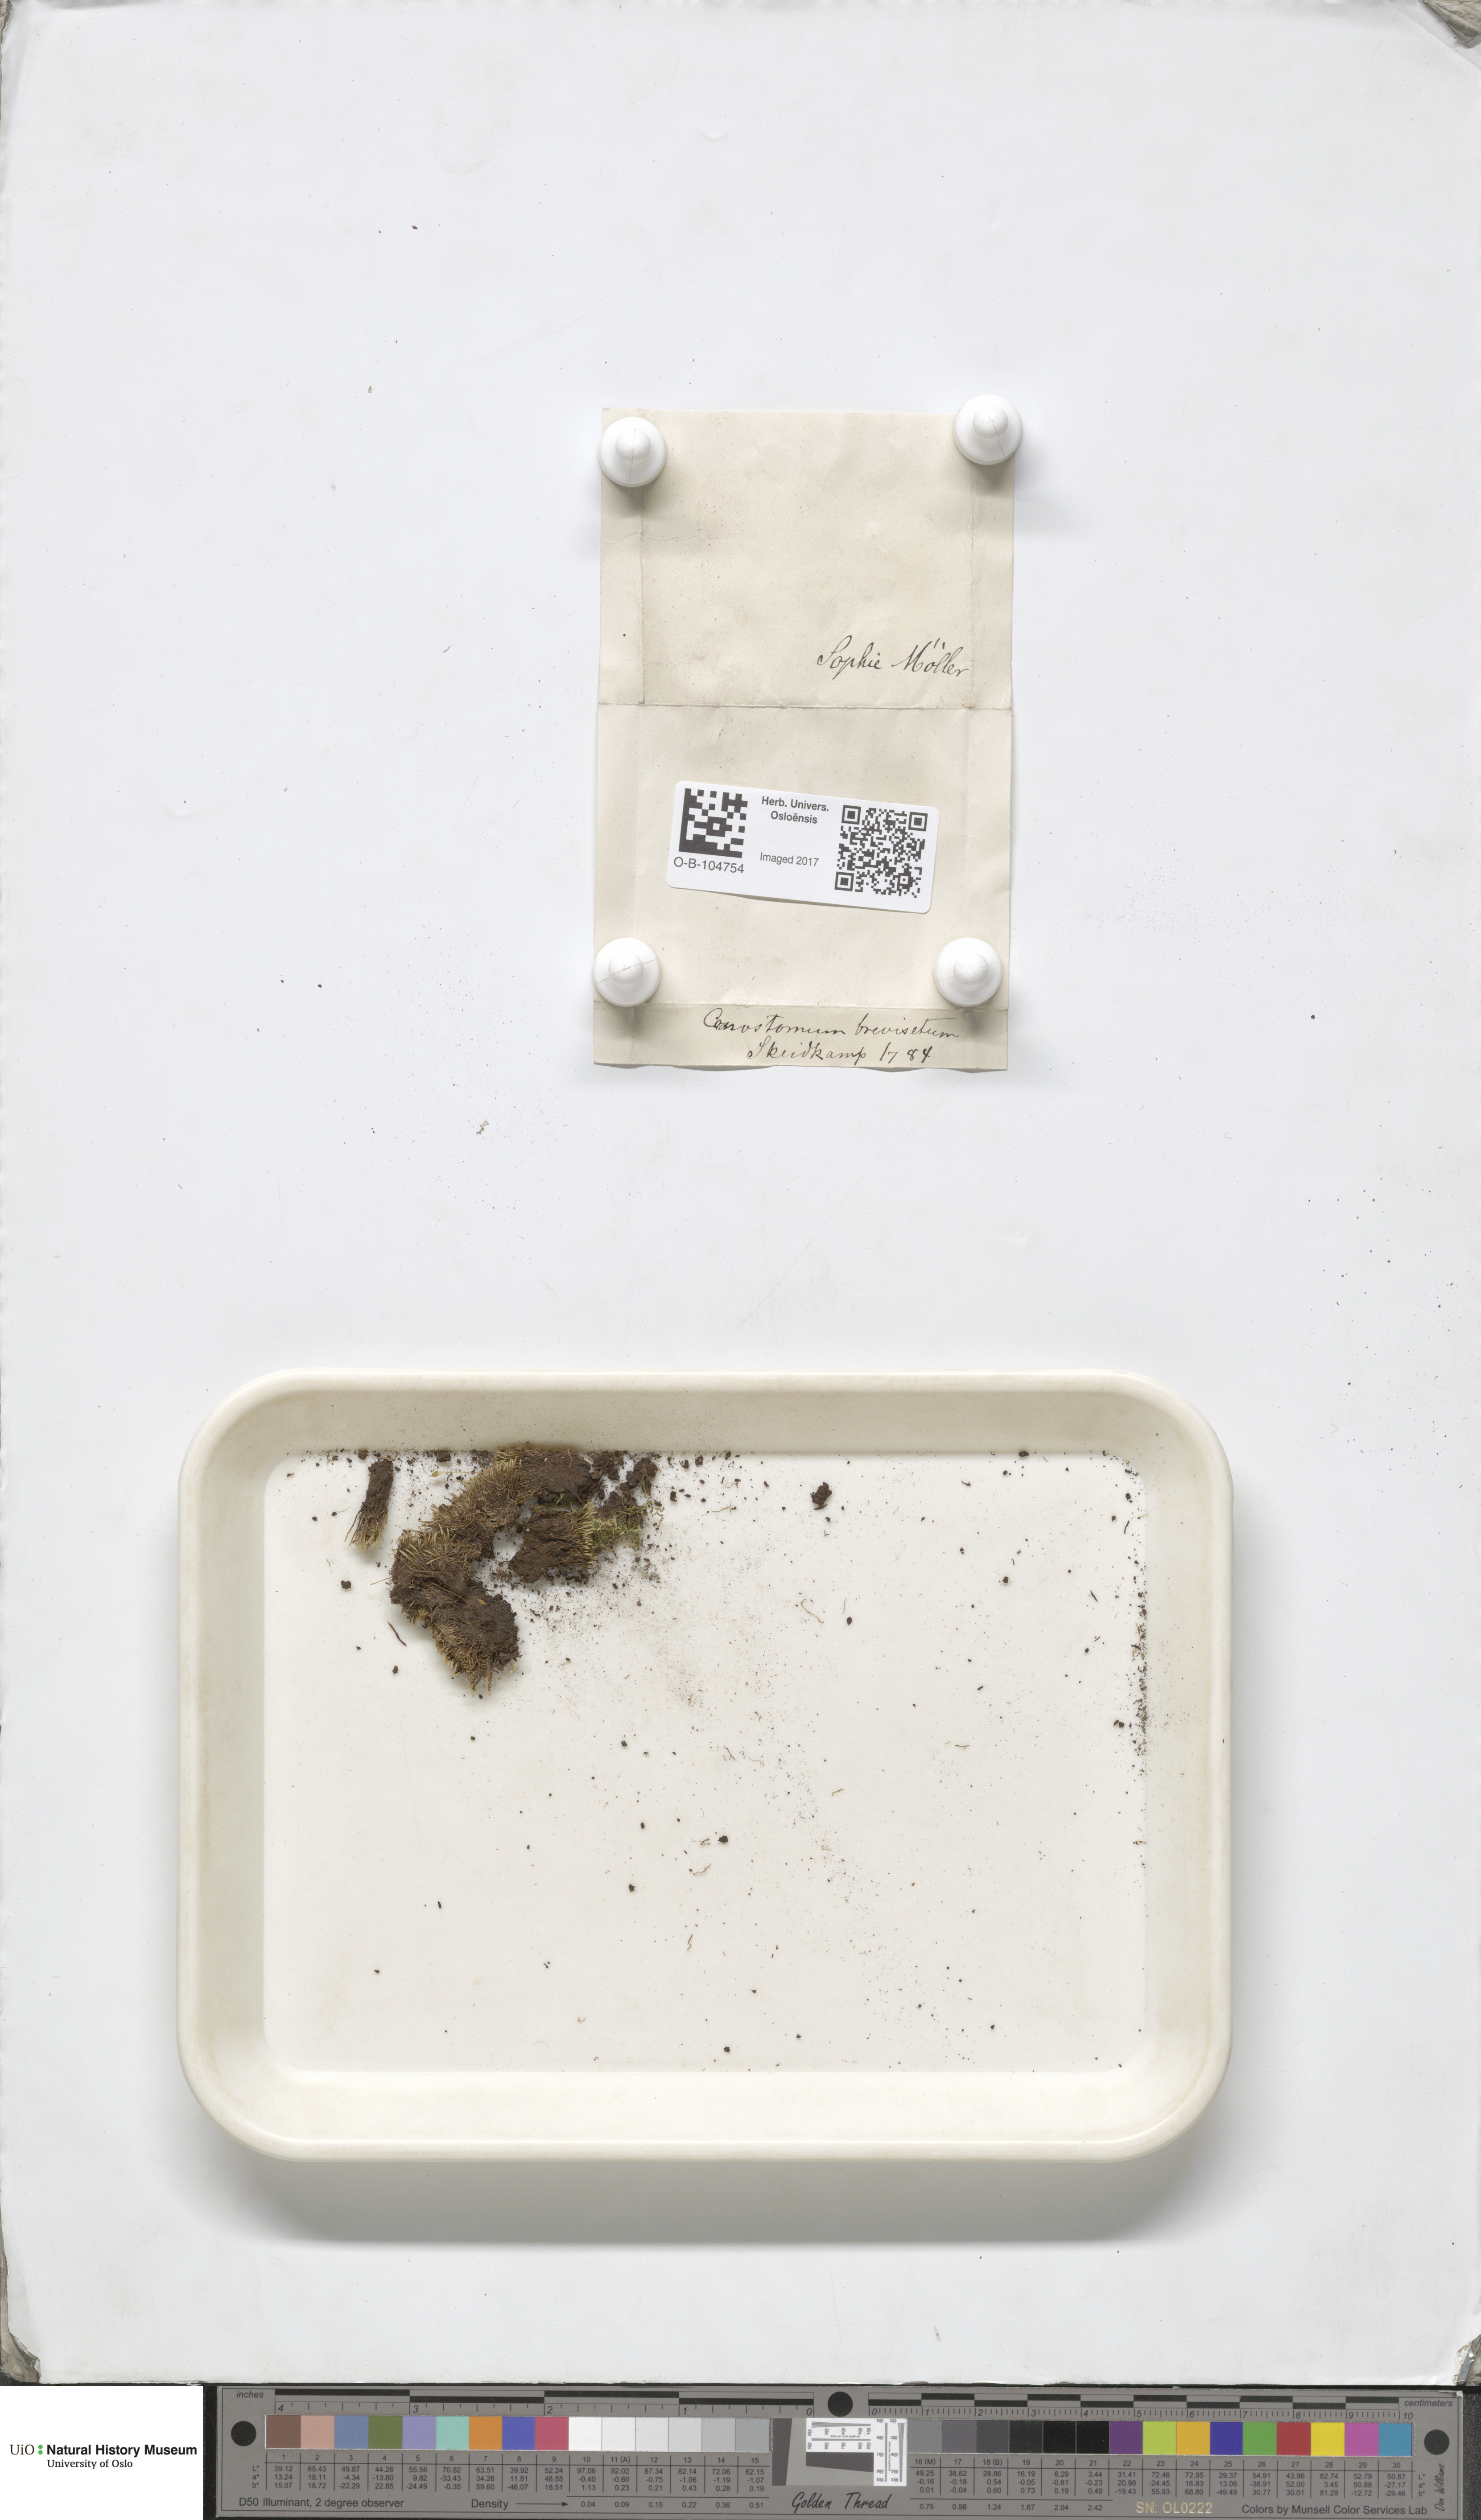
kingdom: Plantae
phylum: Bryophyta
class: Bryopsida
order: Bartramiales
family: Bartramiaceae
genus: Bartramia
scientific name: Bartramia breviseta
